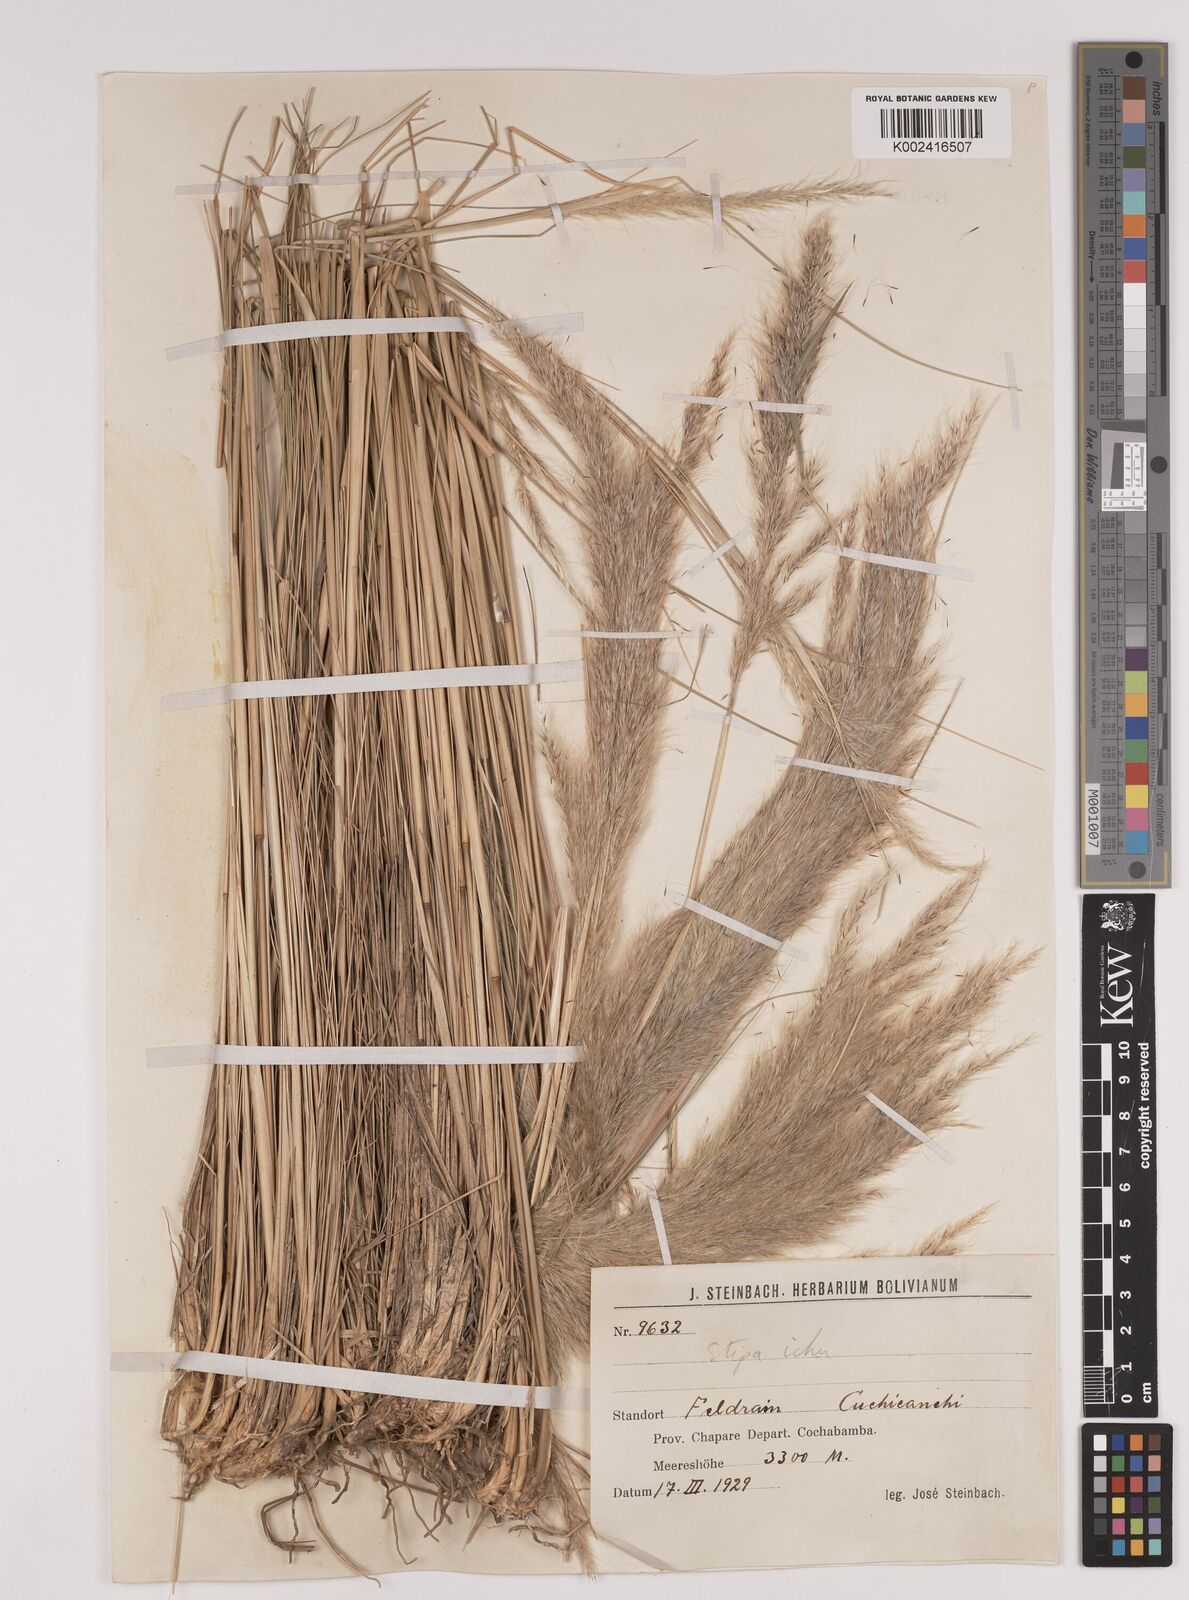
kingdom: Plantae
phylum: Tracheophyta
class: Liliopsida
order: Poales
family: Poaceae
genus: Jarava
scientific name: Jarava ichu
